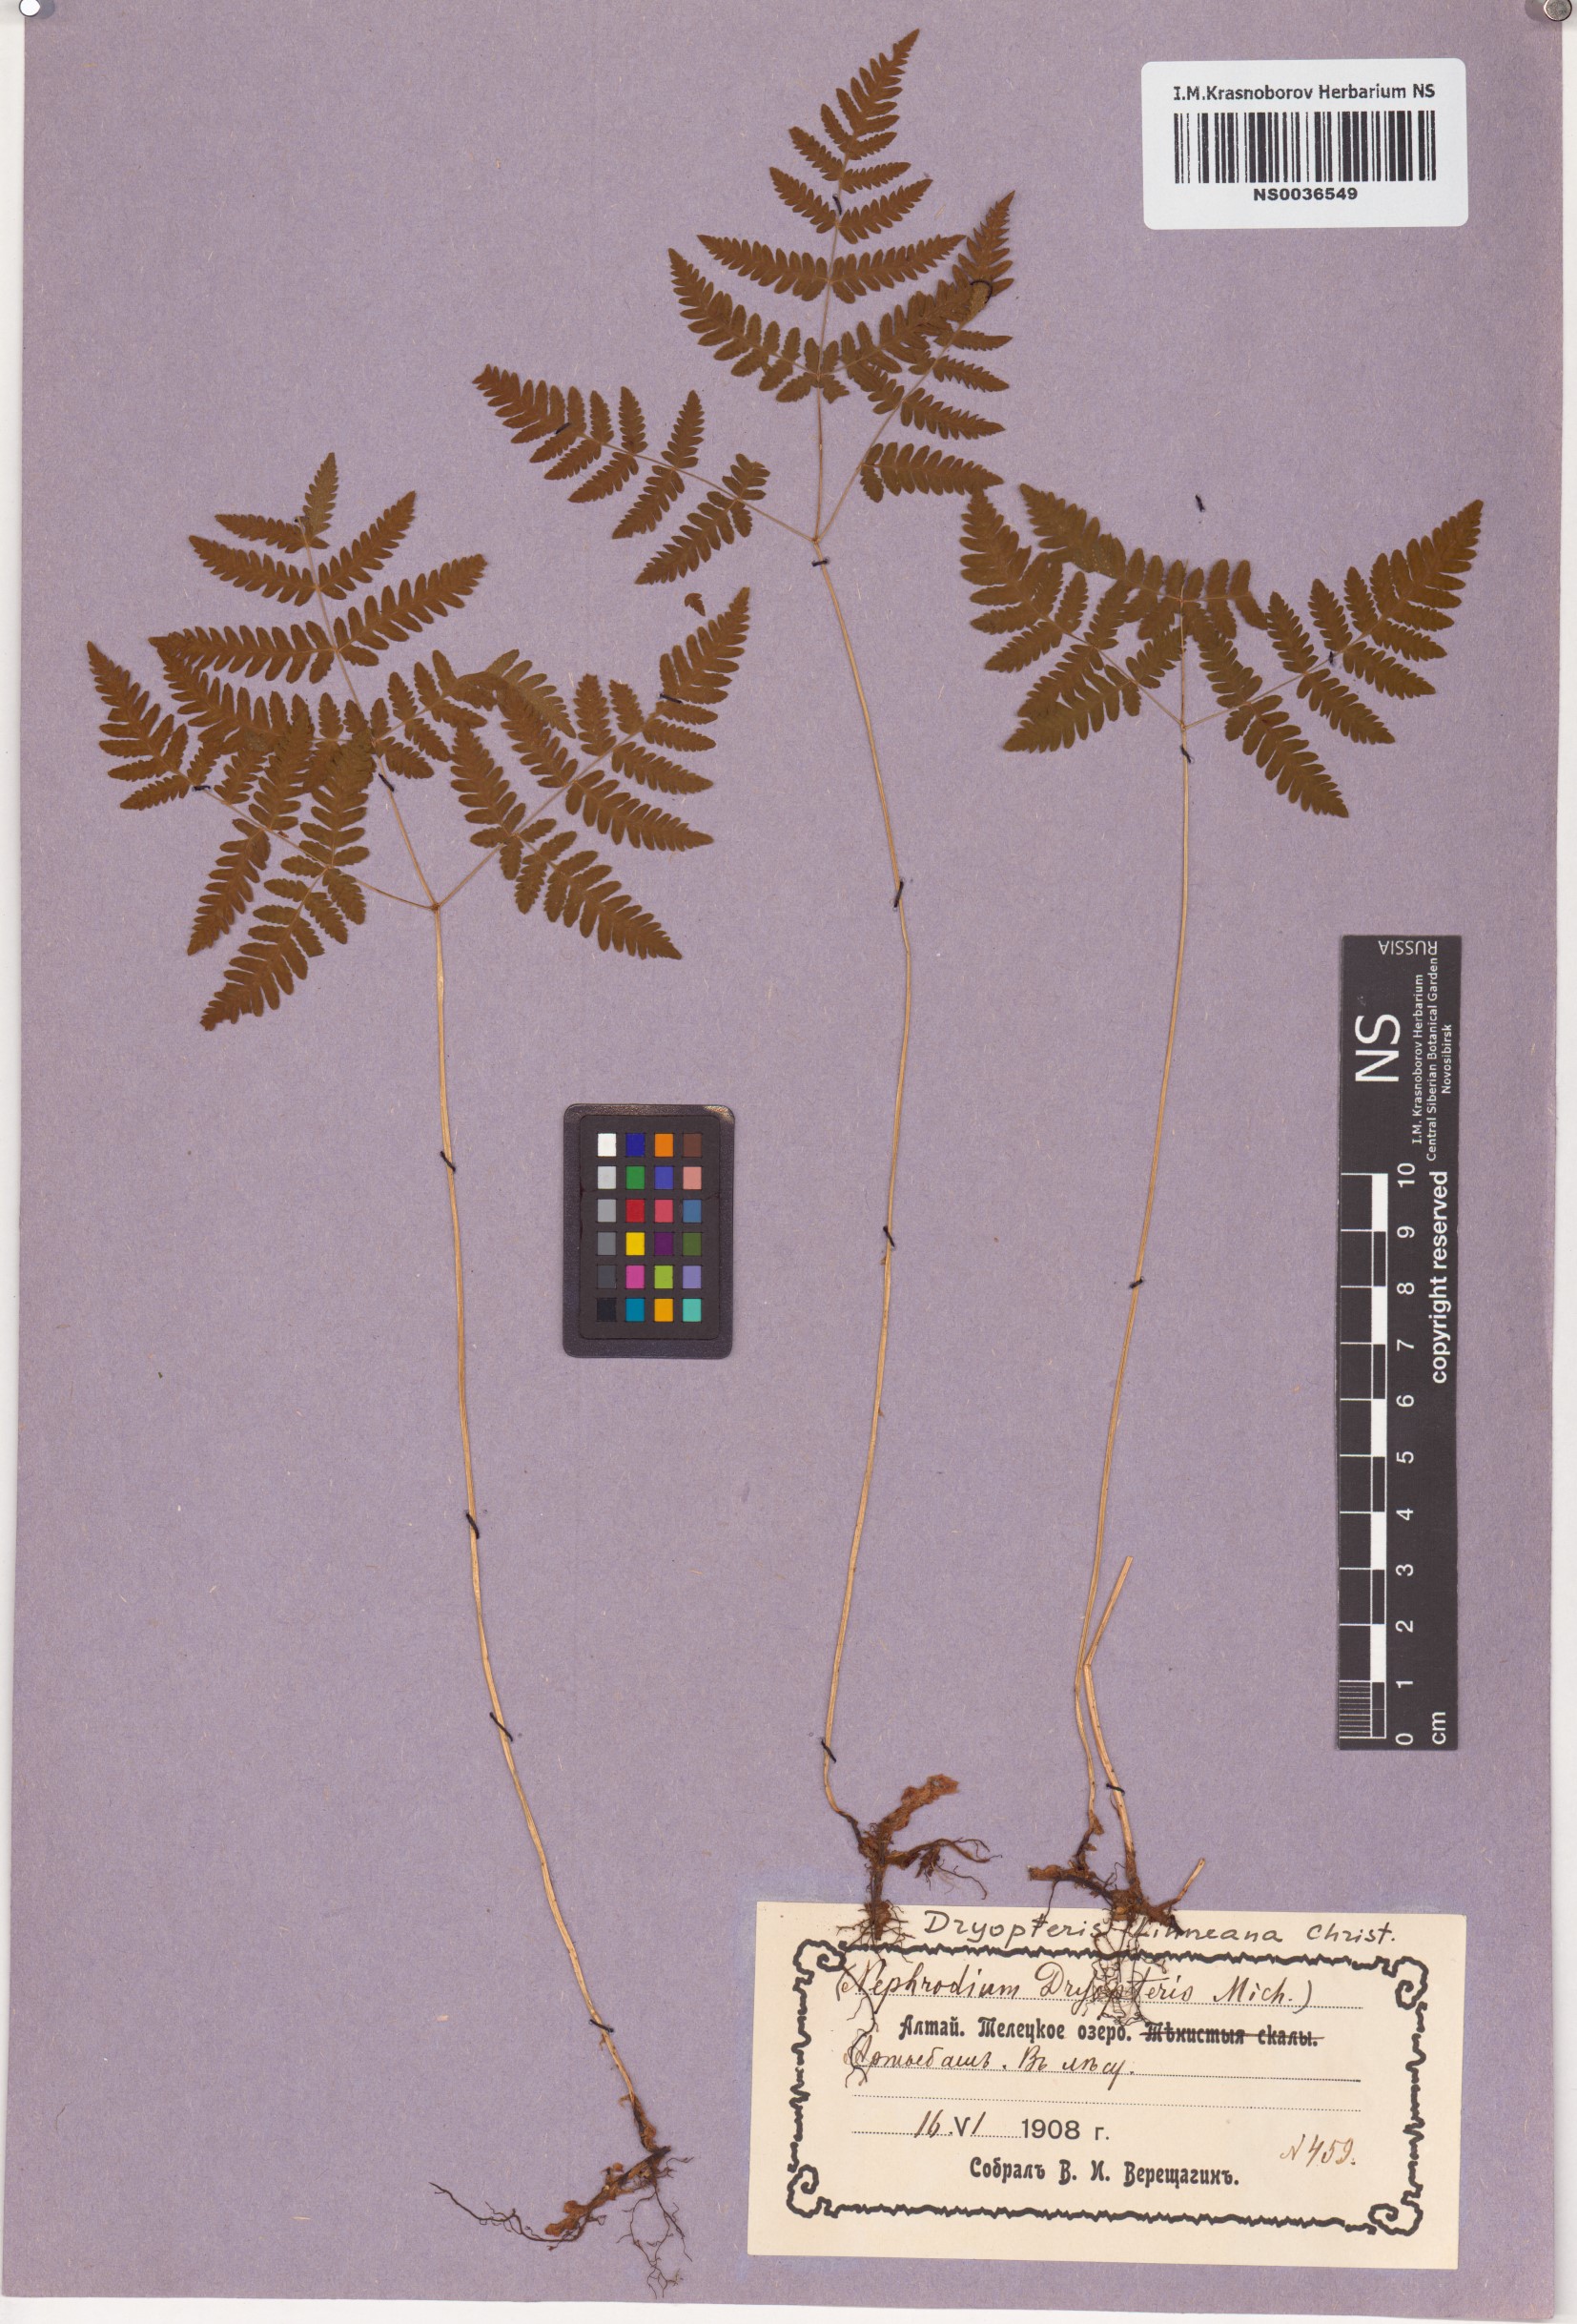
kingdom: Plantae
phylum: Tracheophyta
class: Polypodiopsida
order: Polypodiales
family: Cystopteridaceae
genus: Gymnocarpium
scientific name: Gymnocarpium dryopteris
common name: Oak fern
